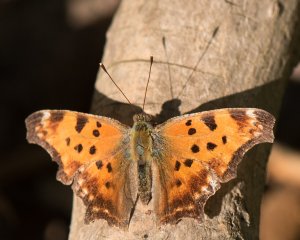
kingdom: Animalia
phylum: Arthropoda
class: Insecta
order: Lepidoptera
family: Nymphalidae
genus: Polygonia
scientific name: Polygonia comma
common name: Eastern Comma
